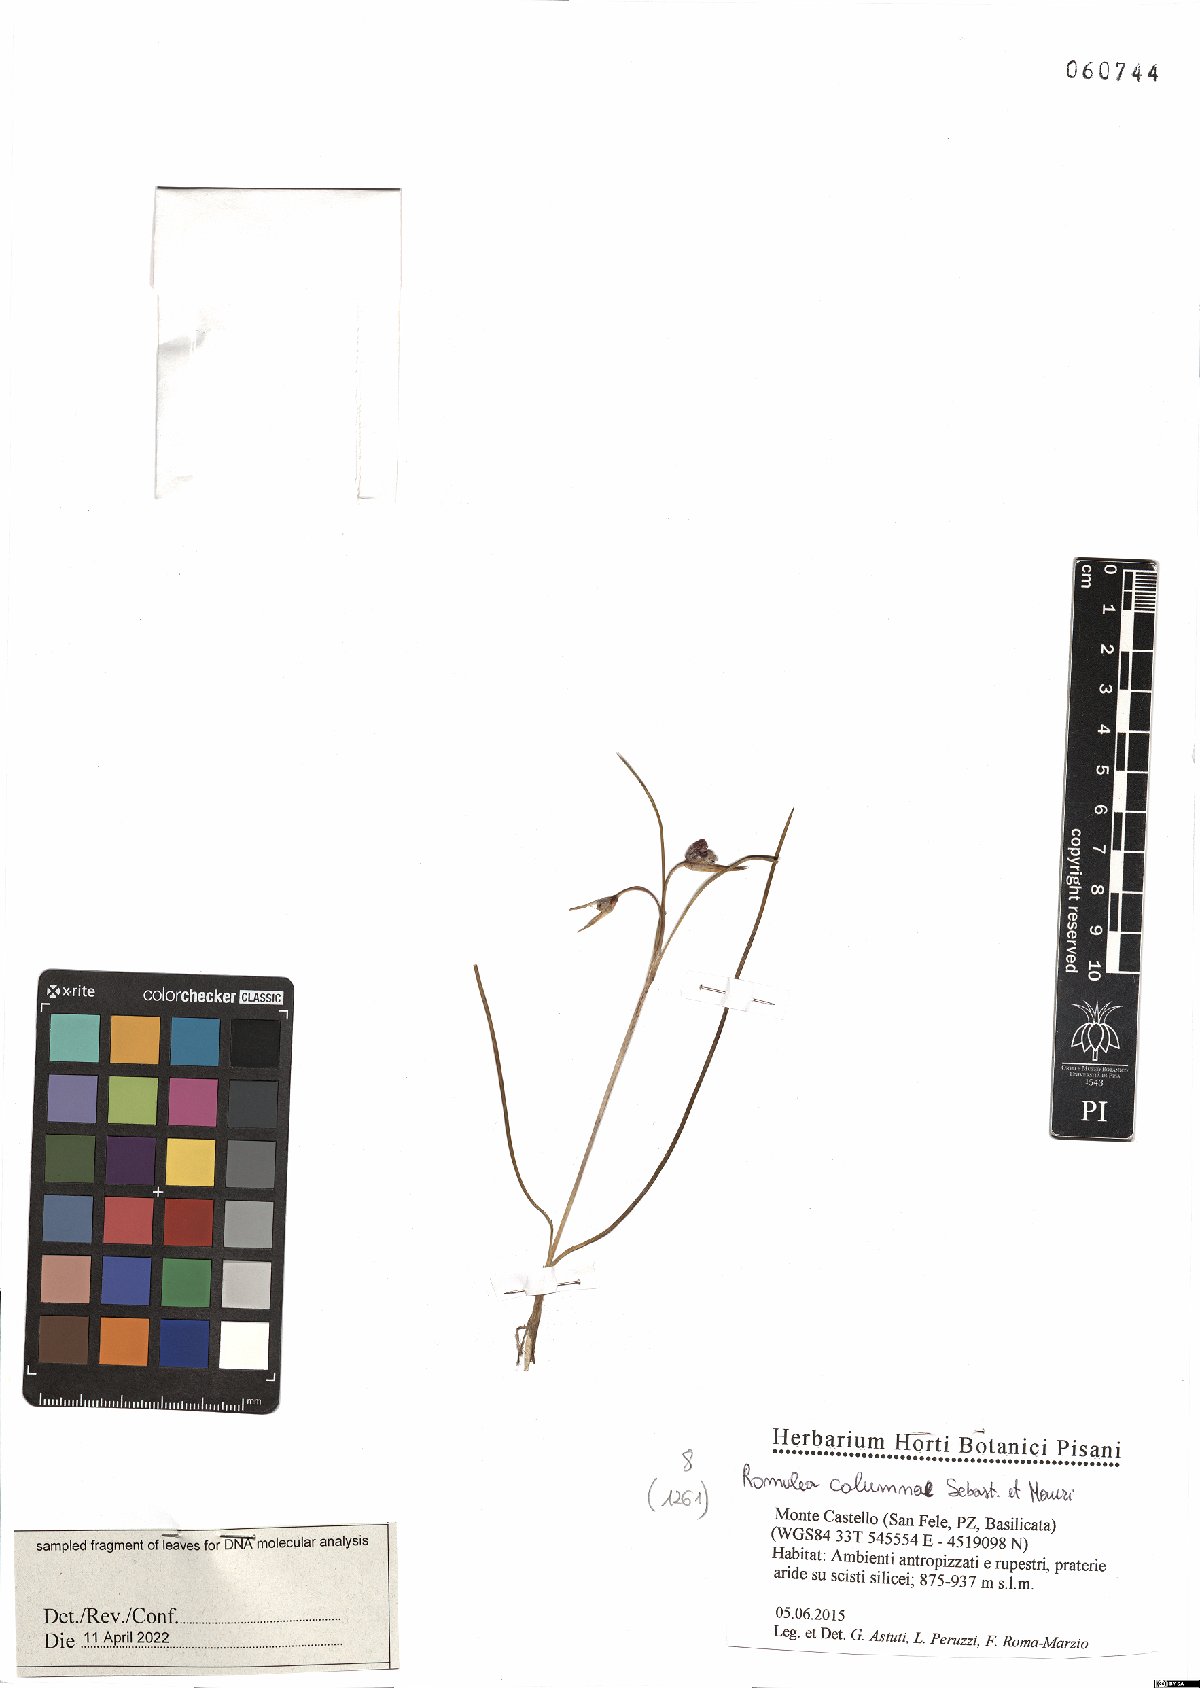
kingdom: Plantae
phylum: Tracheophyta
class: Liliopsida
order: Asparagales
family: Iridaceae
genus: Romulea
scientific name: Romulea columnae
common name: Sand-crocus
